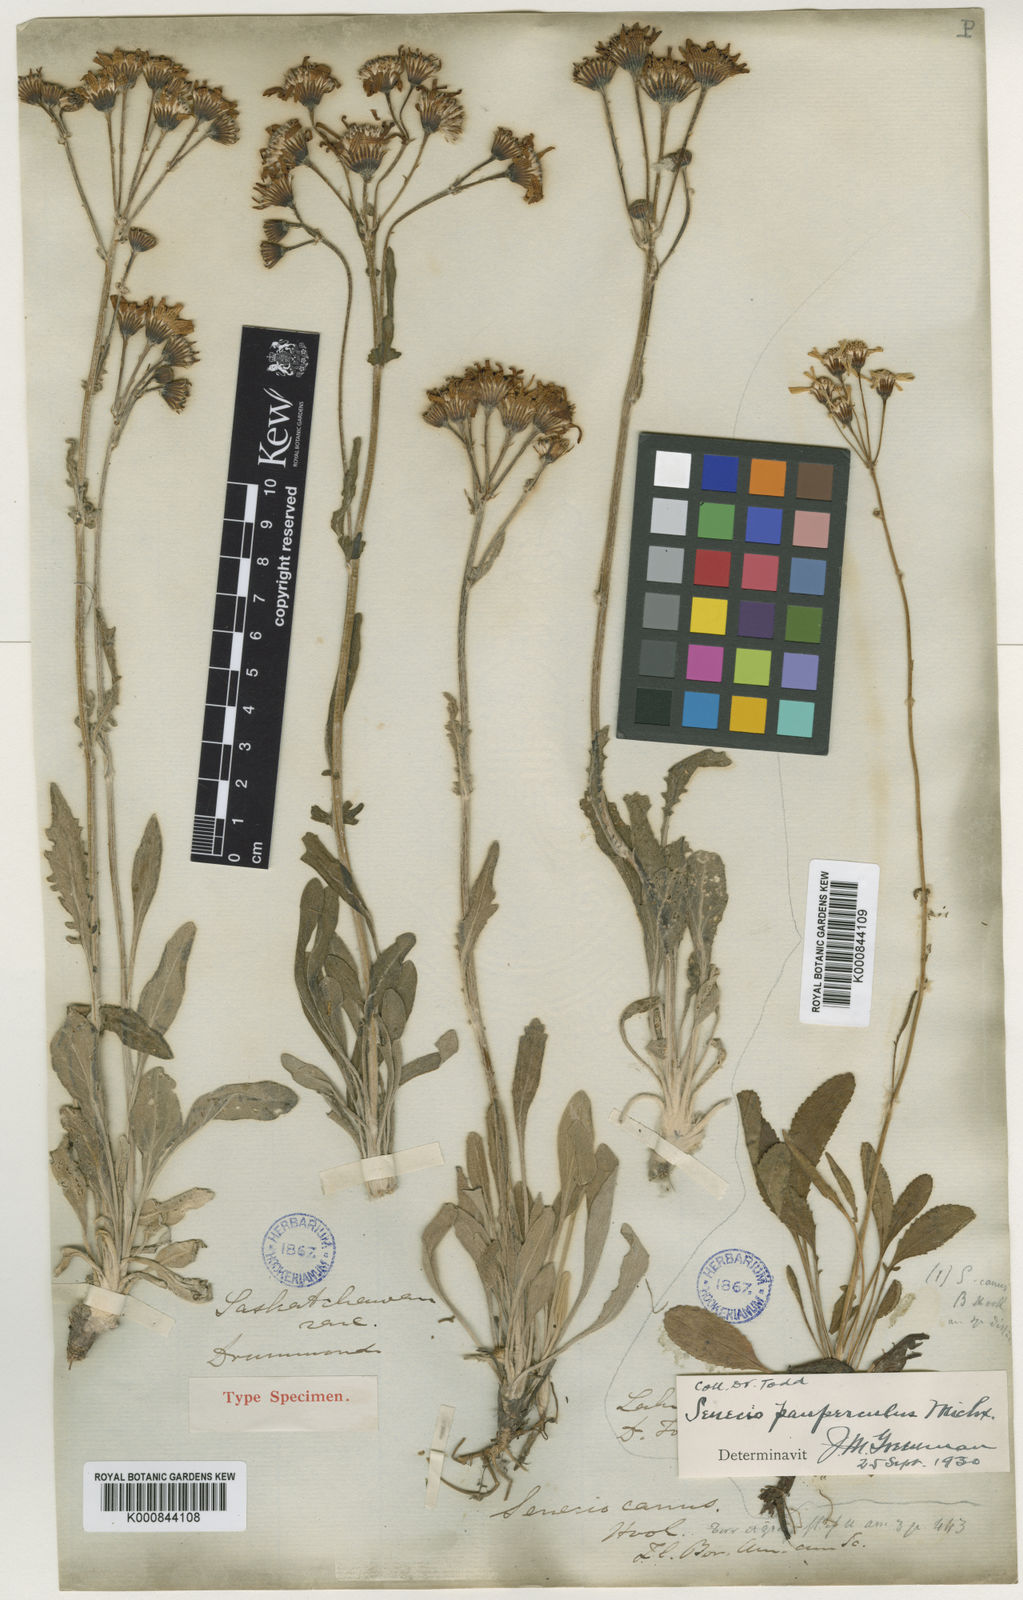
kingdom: Plantae
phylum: Tracheophyta
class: Magnoliopsida
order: Asterales
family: Asteraceae
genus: Packera
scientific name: Packera
